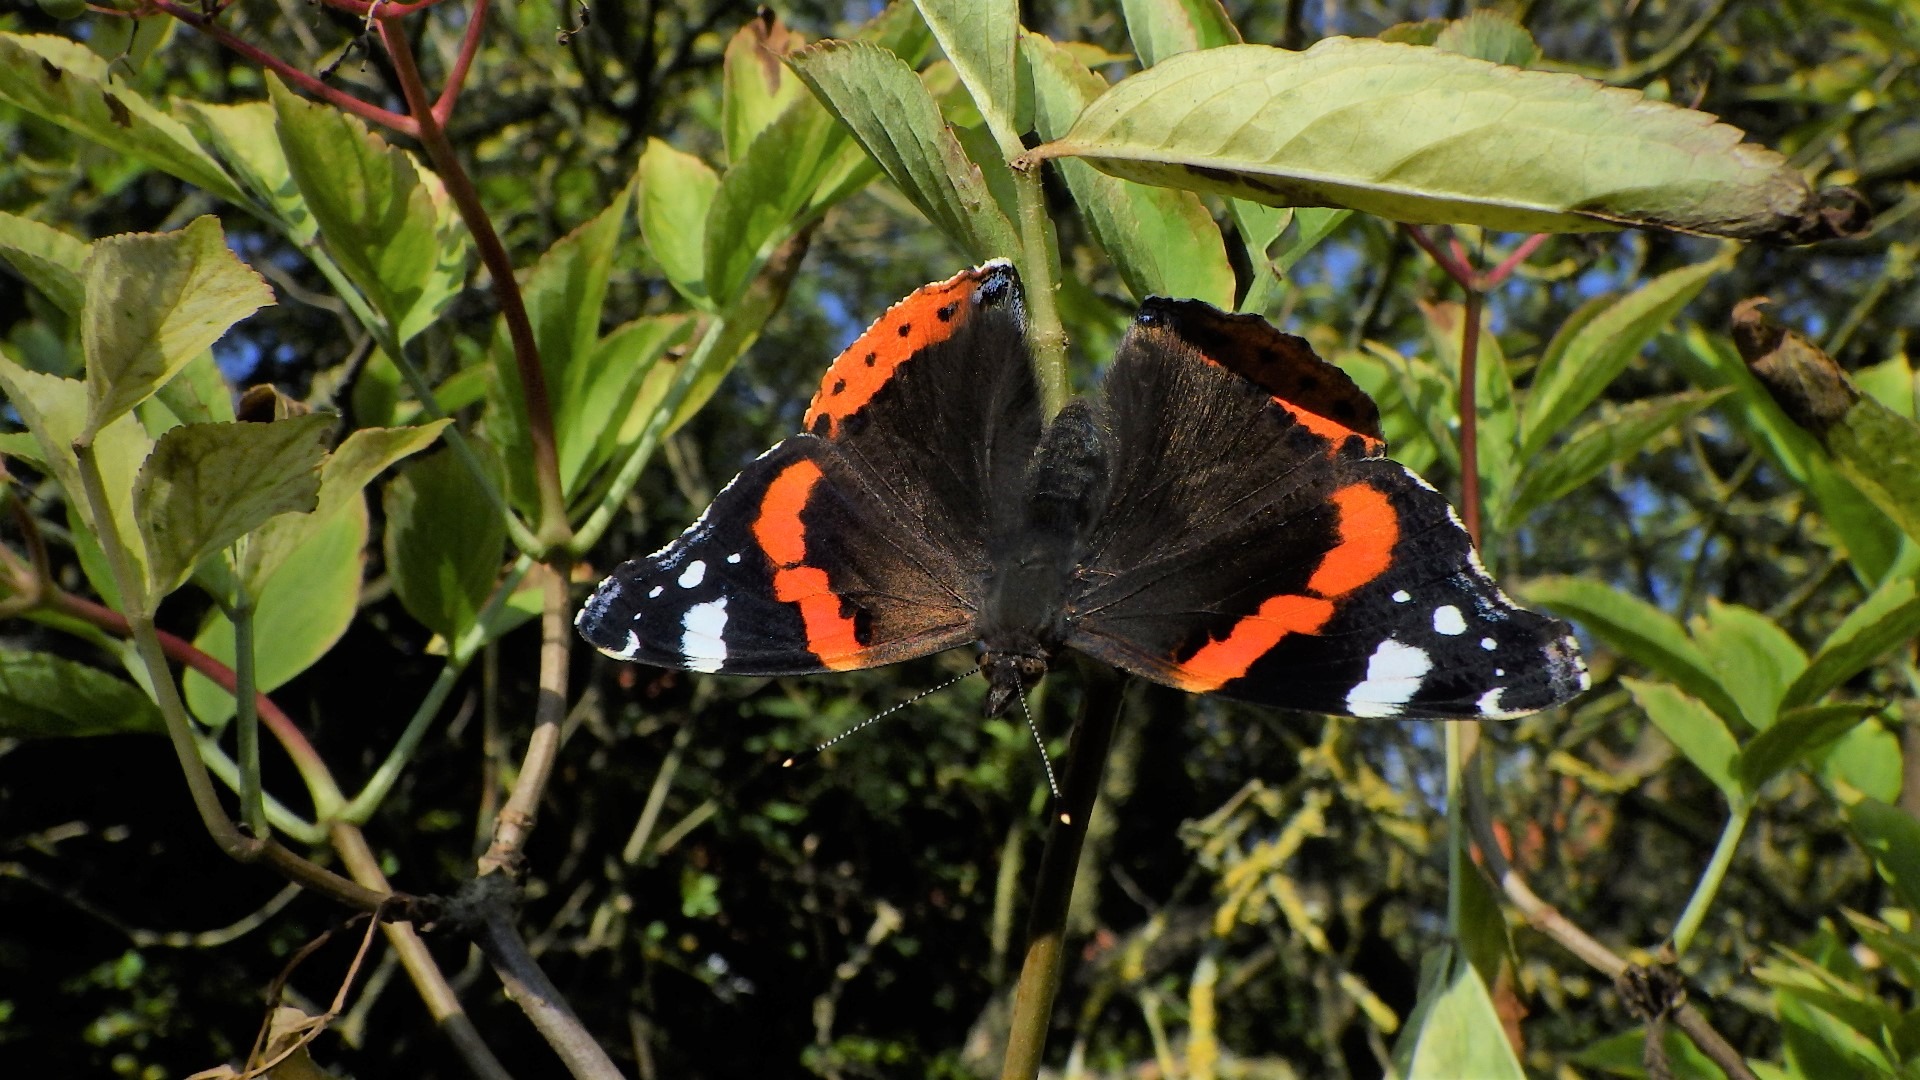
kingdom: Animalia
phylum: Arthropoda
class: Insecta
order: Lepidoptera
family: Nymphalidae
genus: Vanessa
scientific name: Vanessa atalanta
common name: Admiral
